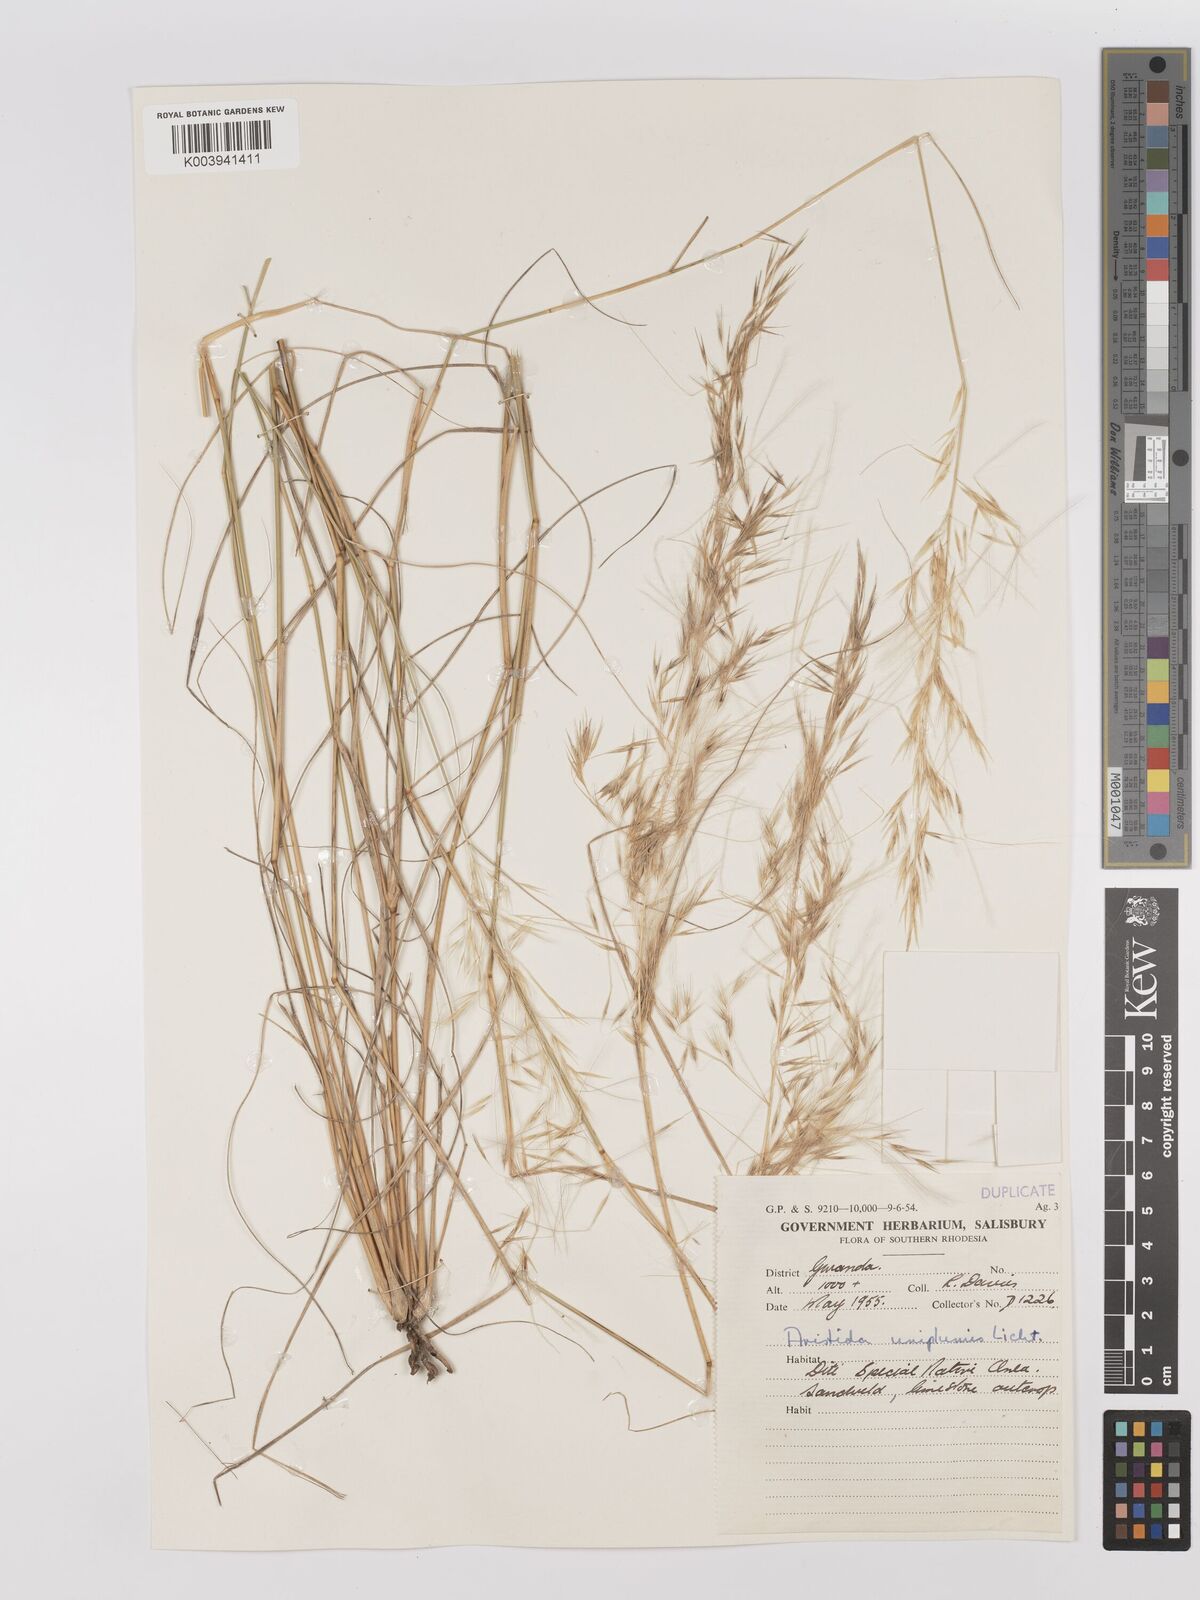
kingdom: Plantae
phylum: Tracheophyta
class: Liliopsida
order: Poales
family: Poaceae
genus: Stipagrostis
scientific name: Stipagrostis uniplumis
